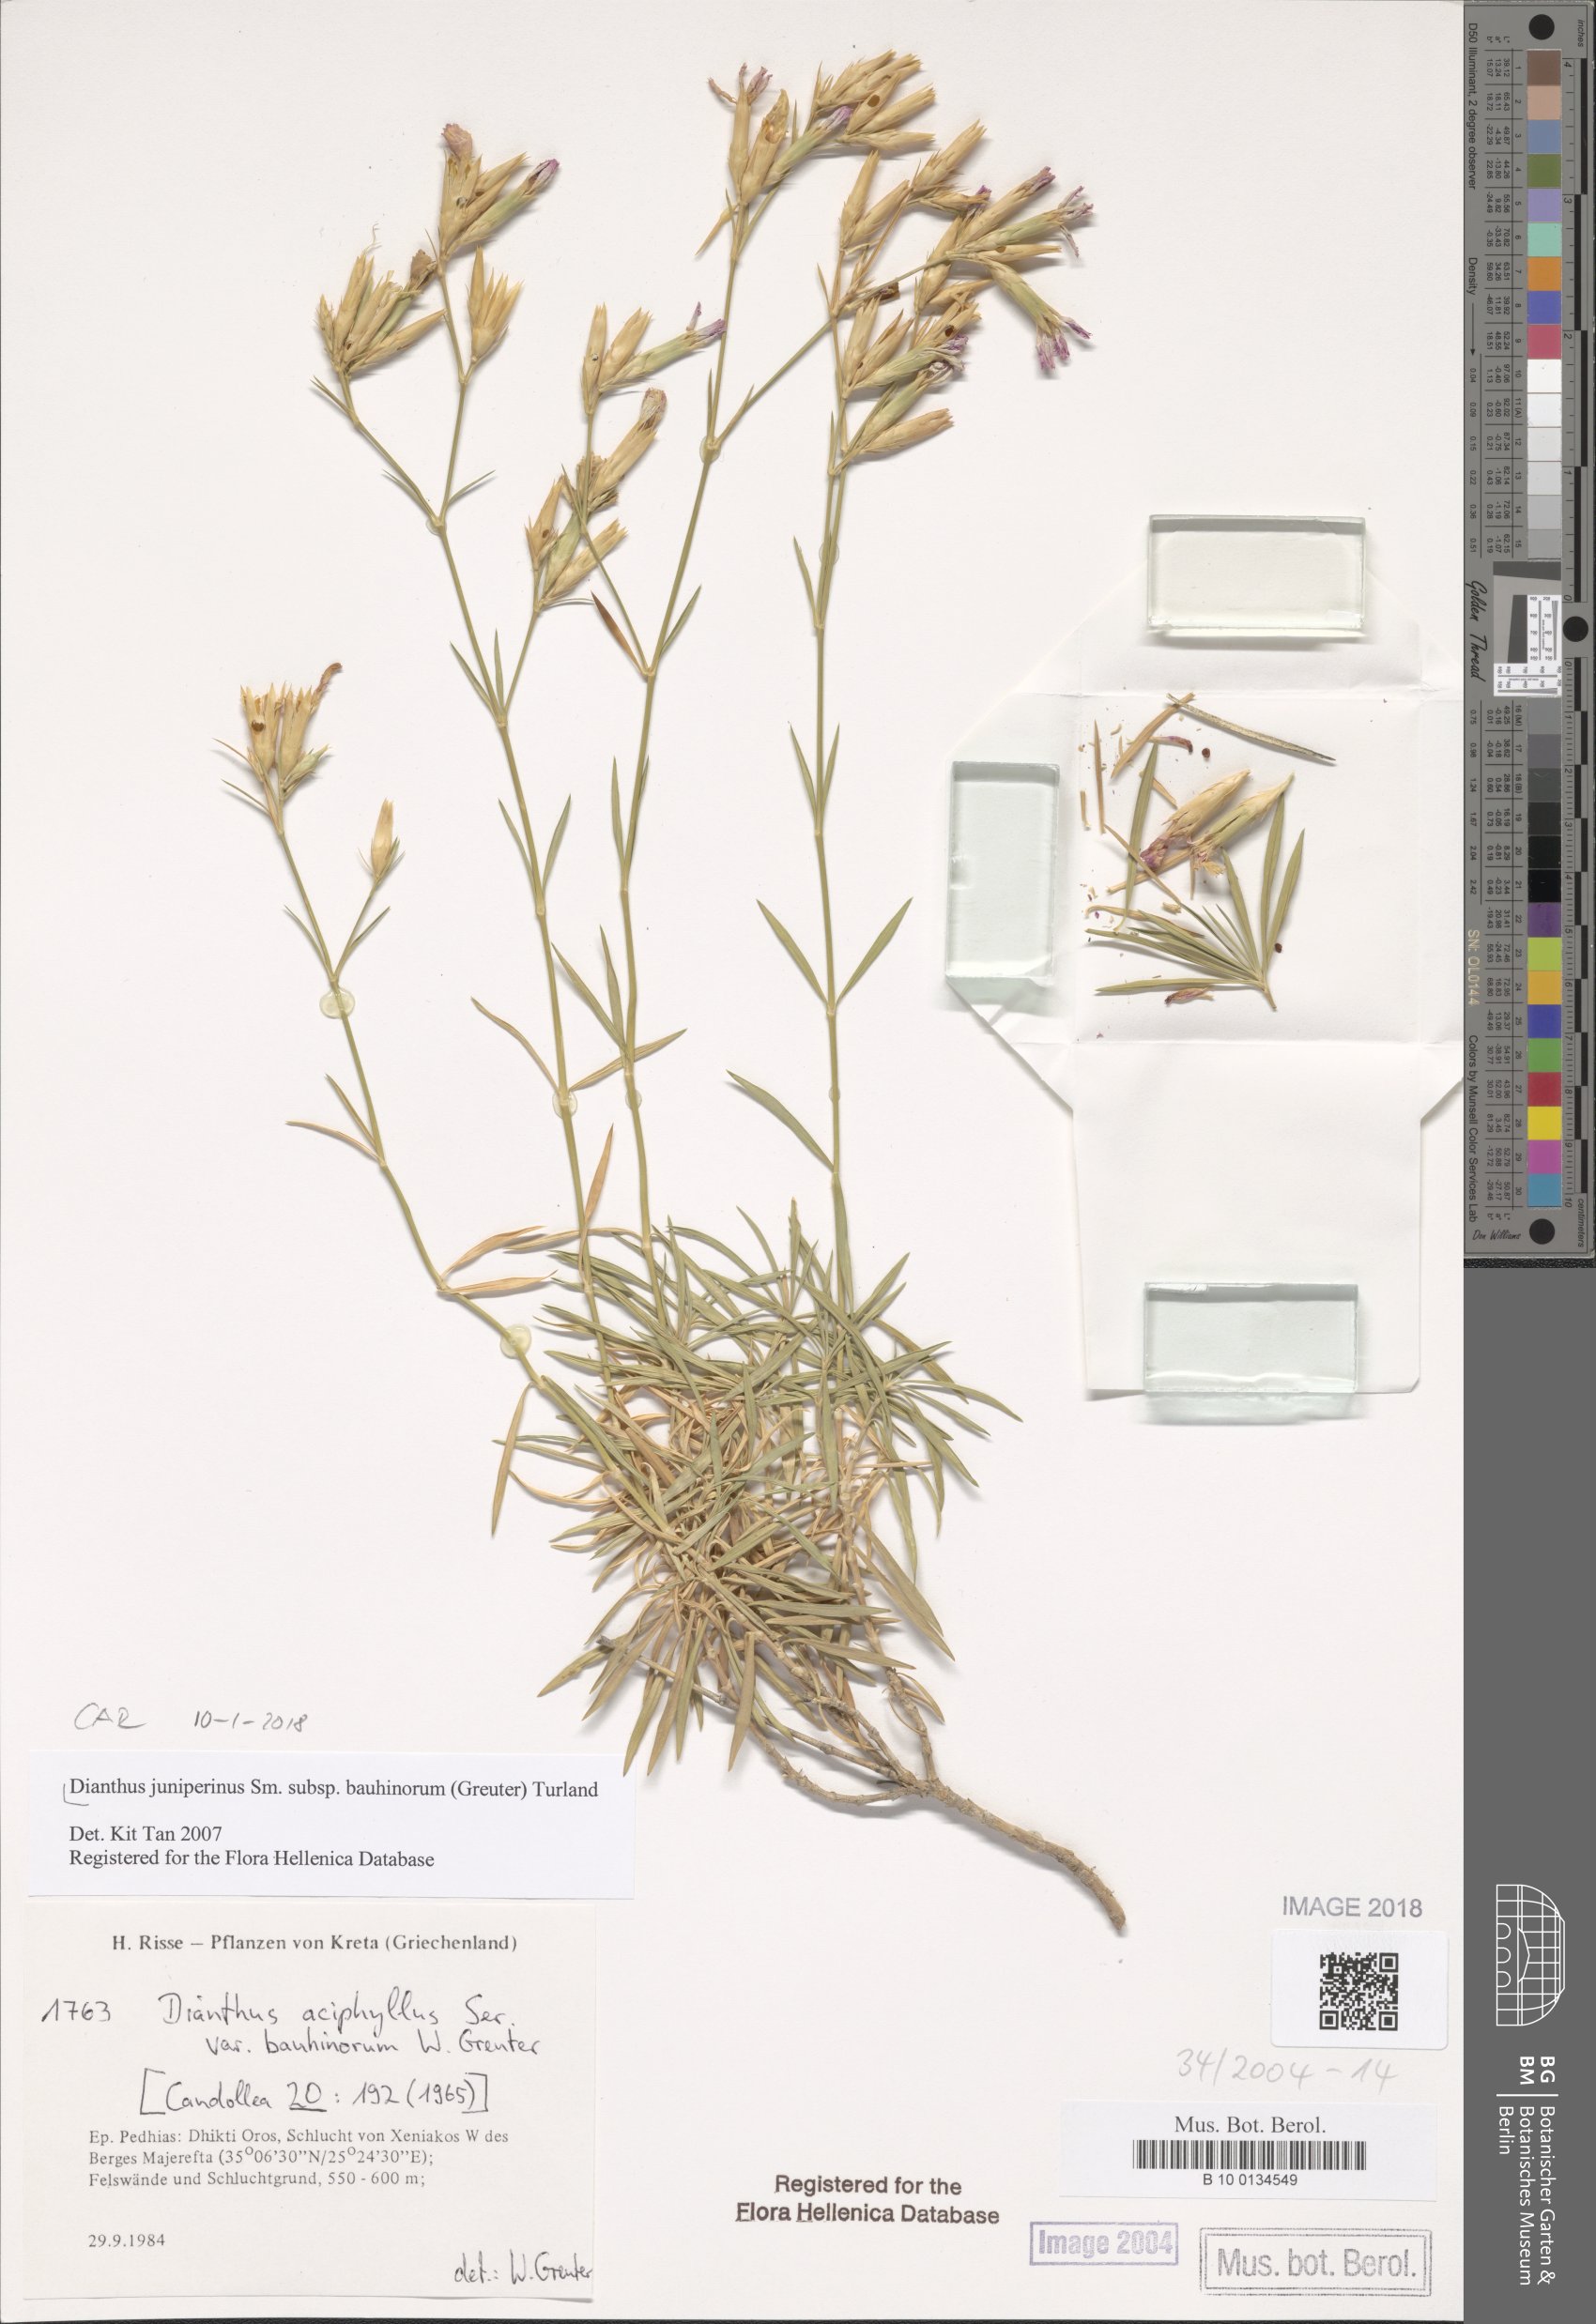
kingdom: Plantae
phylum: Tracheophyta
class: Magnoliopsida
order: Caryophyllales
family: Caryophyllaceae
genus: Dianthus
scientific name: Dianthus juniperinus
